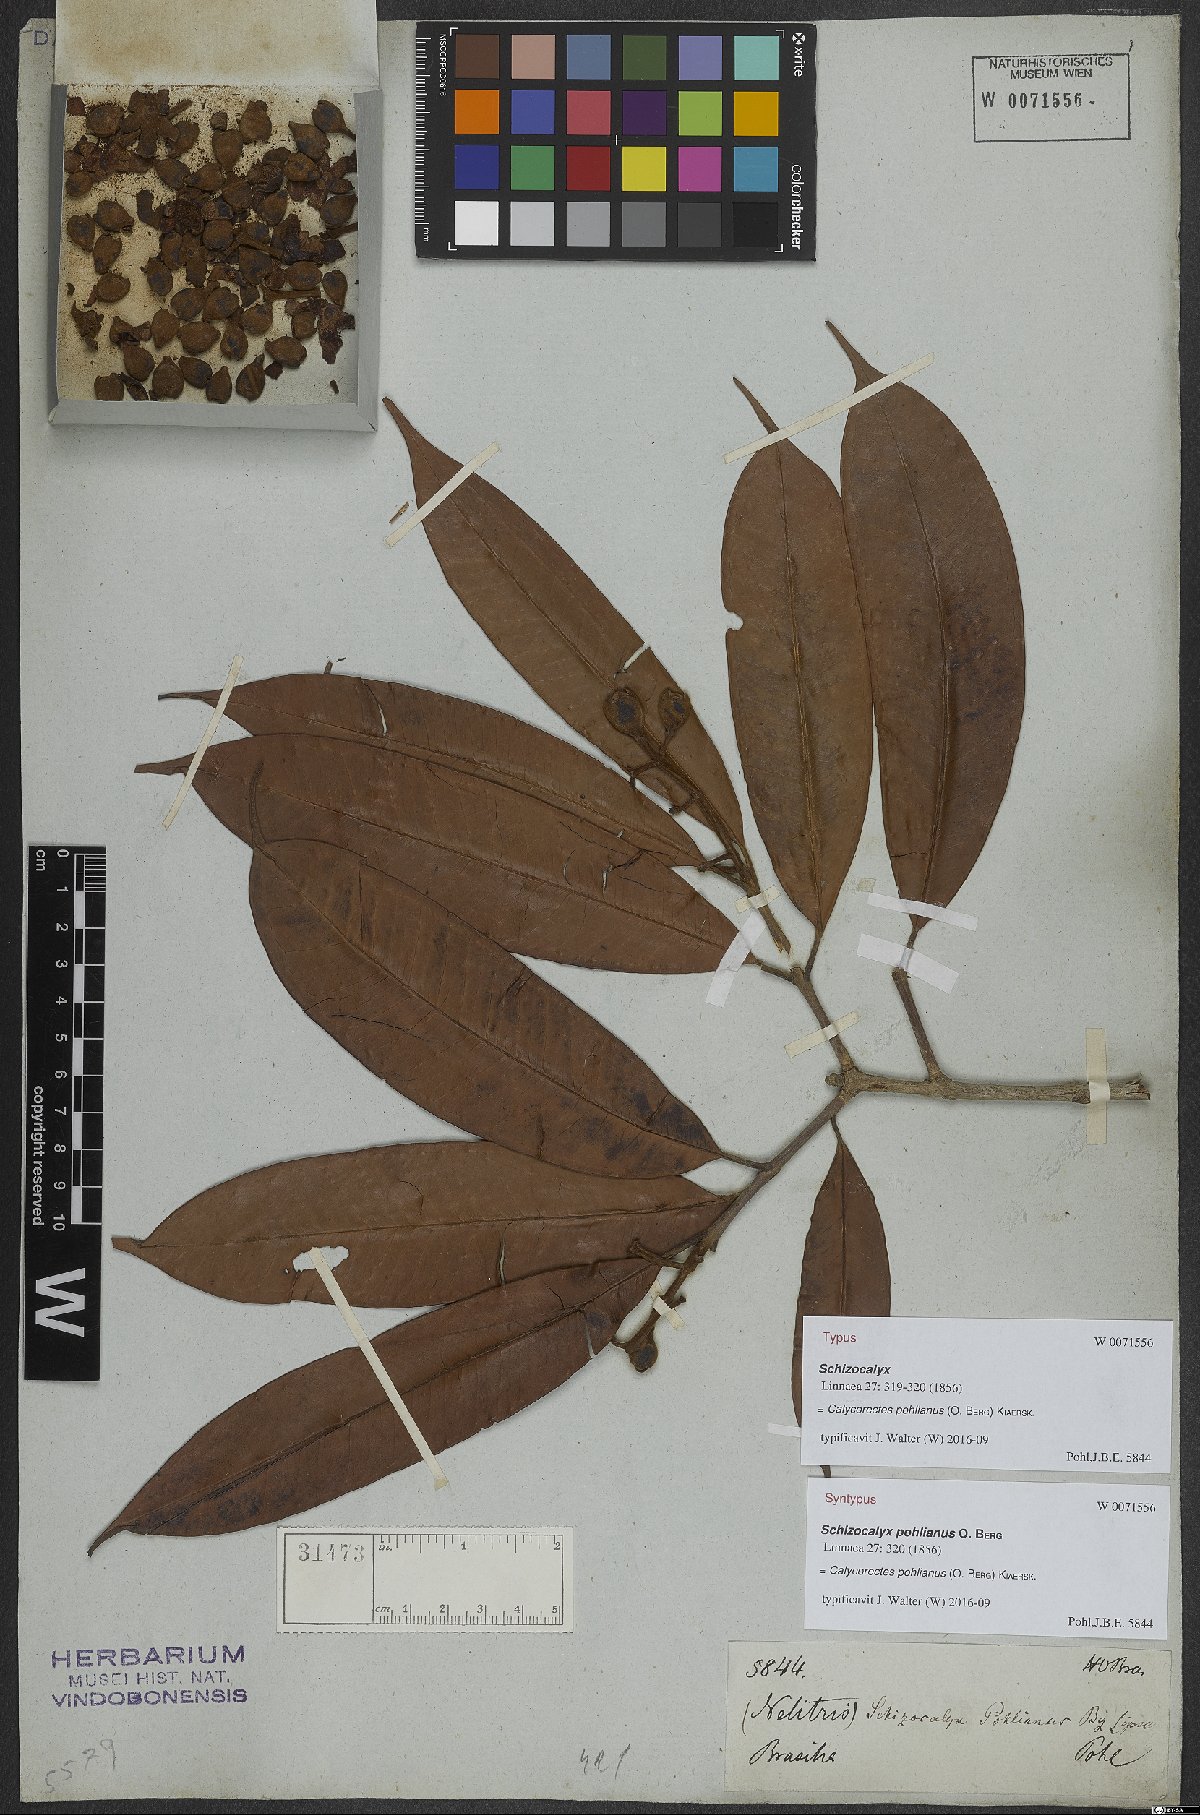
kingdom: Plantae
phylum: Tracheophyta
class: Magnoliopsida
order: Myrtales
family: Myrtaceae
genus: Eugenia
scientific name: Eugenia cambucae
